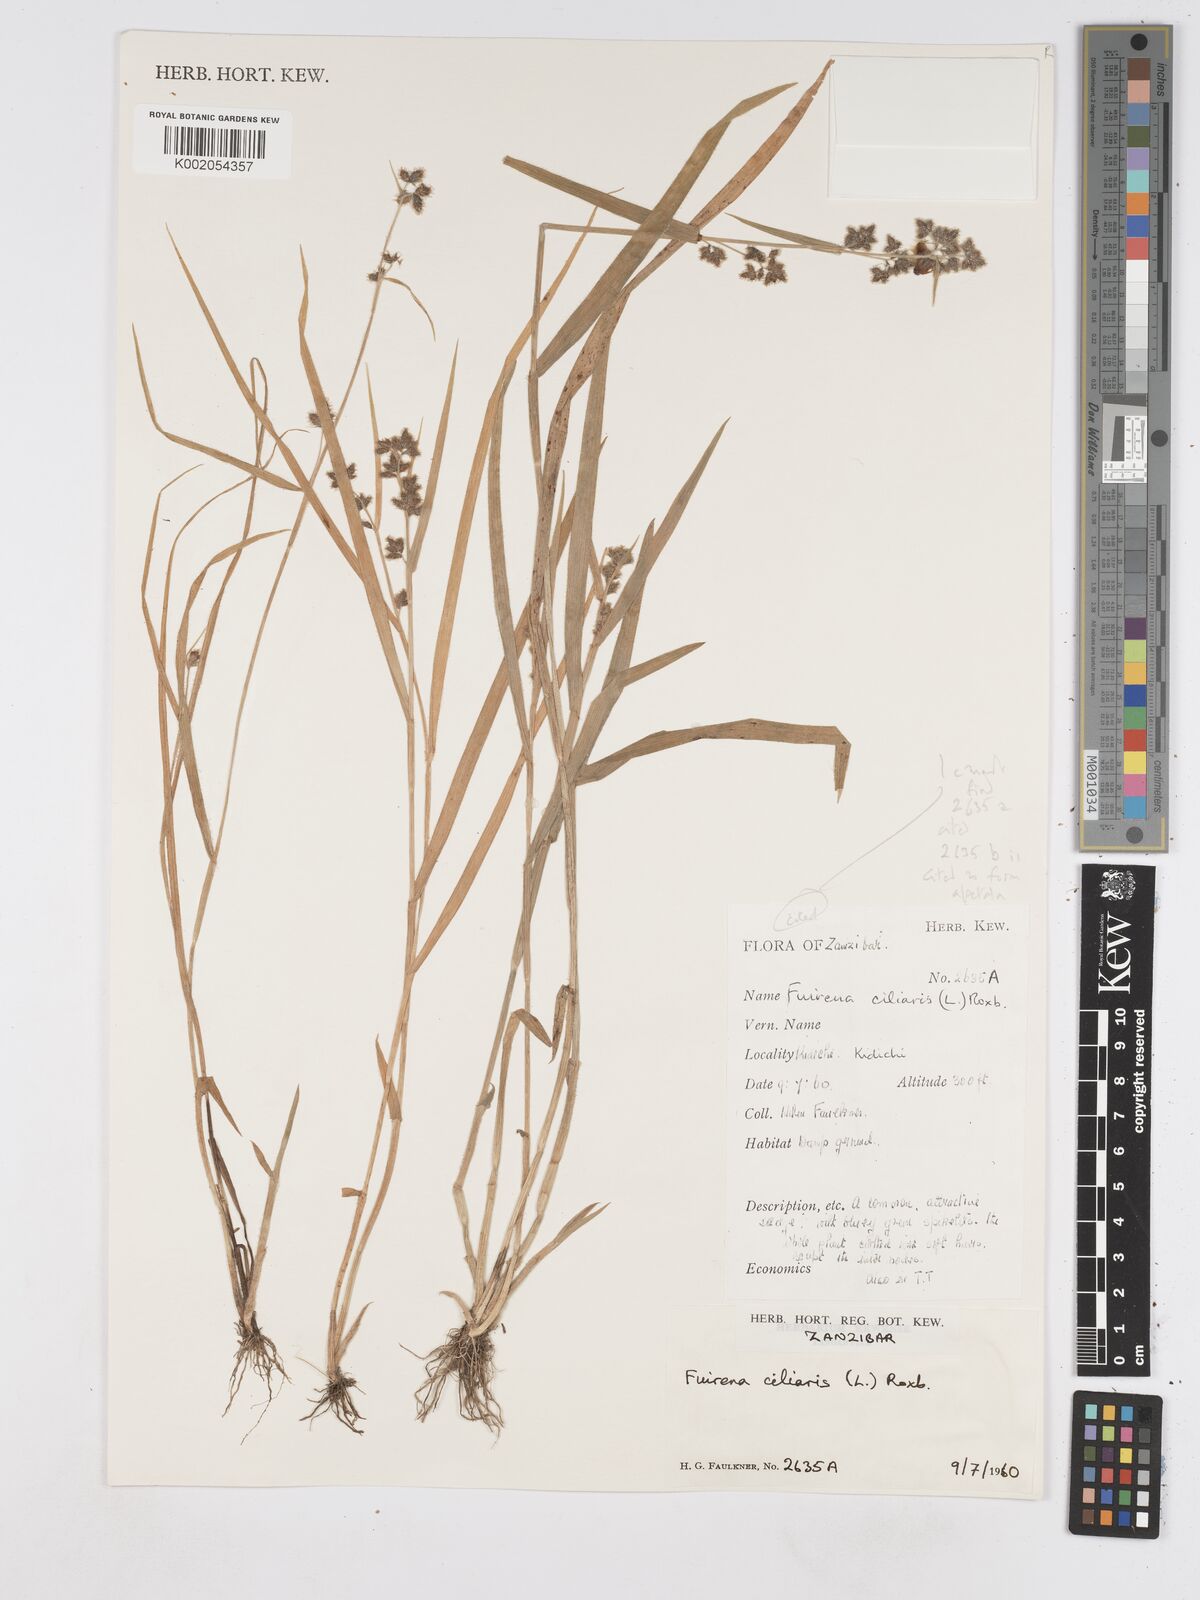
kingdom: Plantae
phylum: Tracheophyta
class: Liliopsida
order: Poales
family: Cyperaceae
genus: Fuirena
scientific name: Fuirena ciliaris
